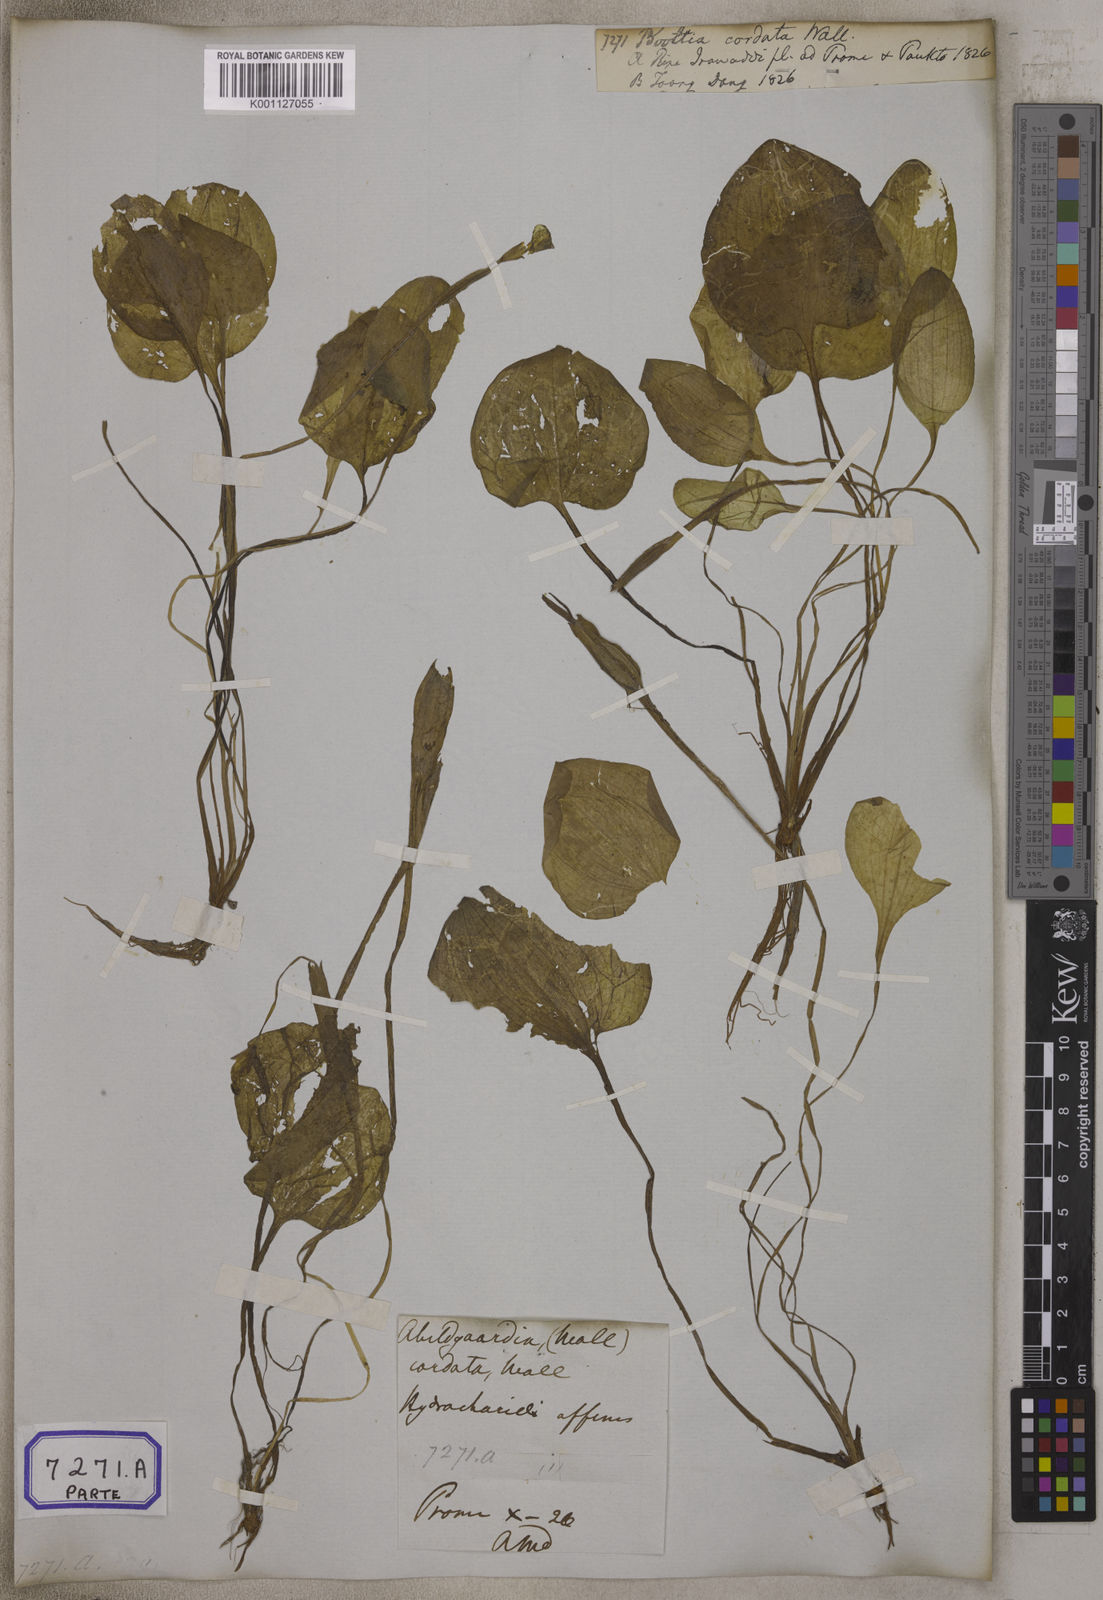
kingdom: Plantae
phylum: Tracheophyta
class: Liliopsida
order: Alismatales
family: Hydrocharitaceae
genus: Ottelia
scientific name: Ottelia cordata
